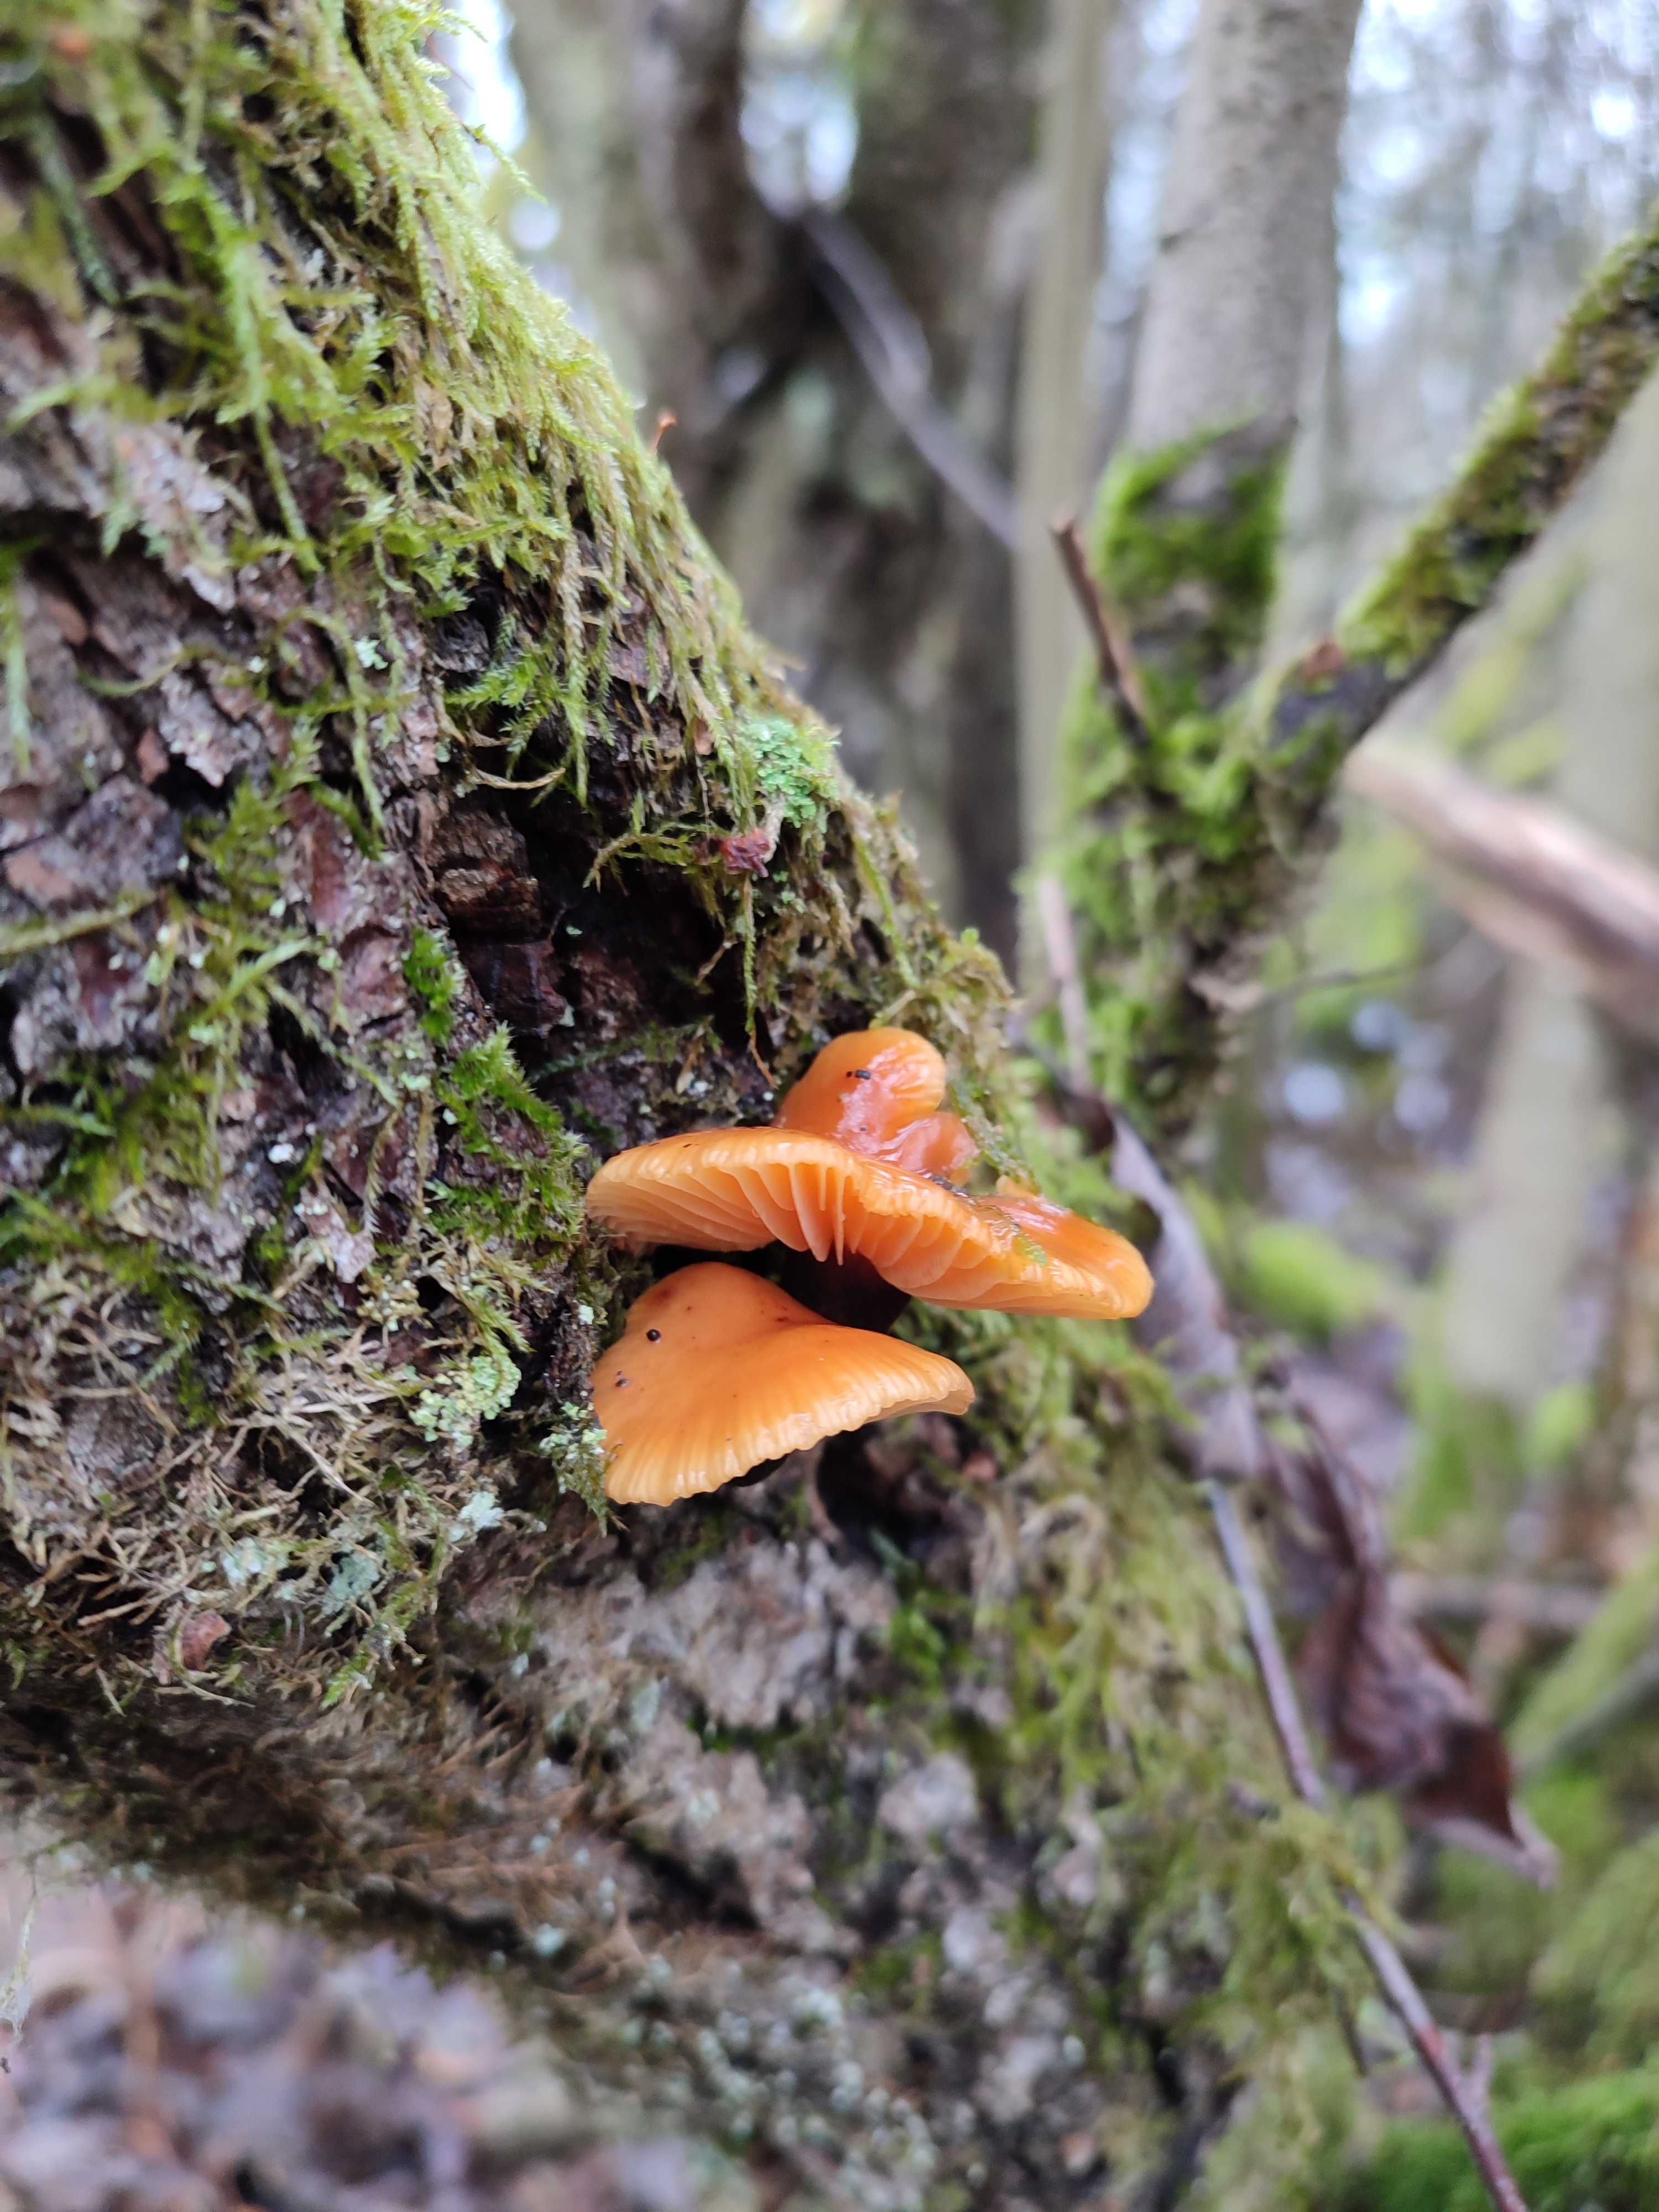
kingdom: Fungi
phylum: Basidiomycota
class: Agaricomycetes
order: Agaricales
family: Physalacriaceae
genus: Flammulina
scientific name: Flammulina velutipes
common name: gul fløjlsfod
